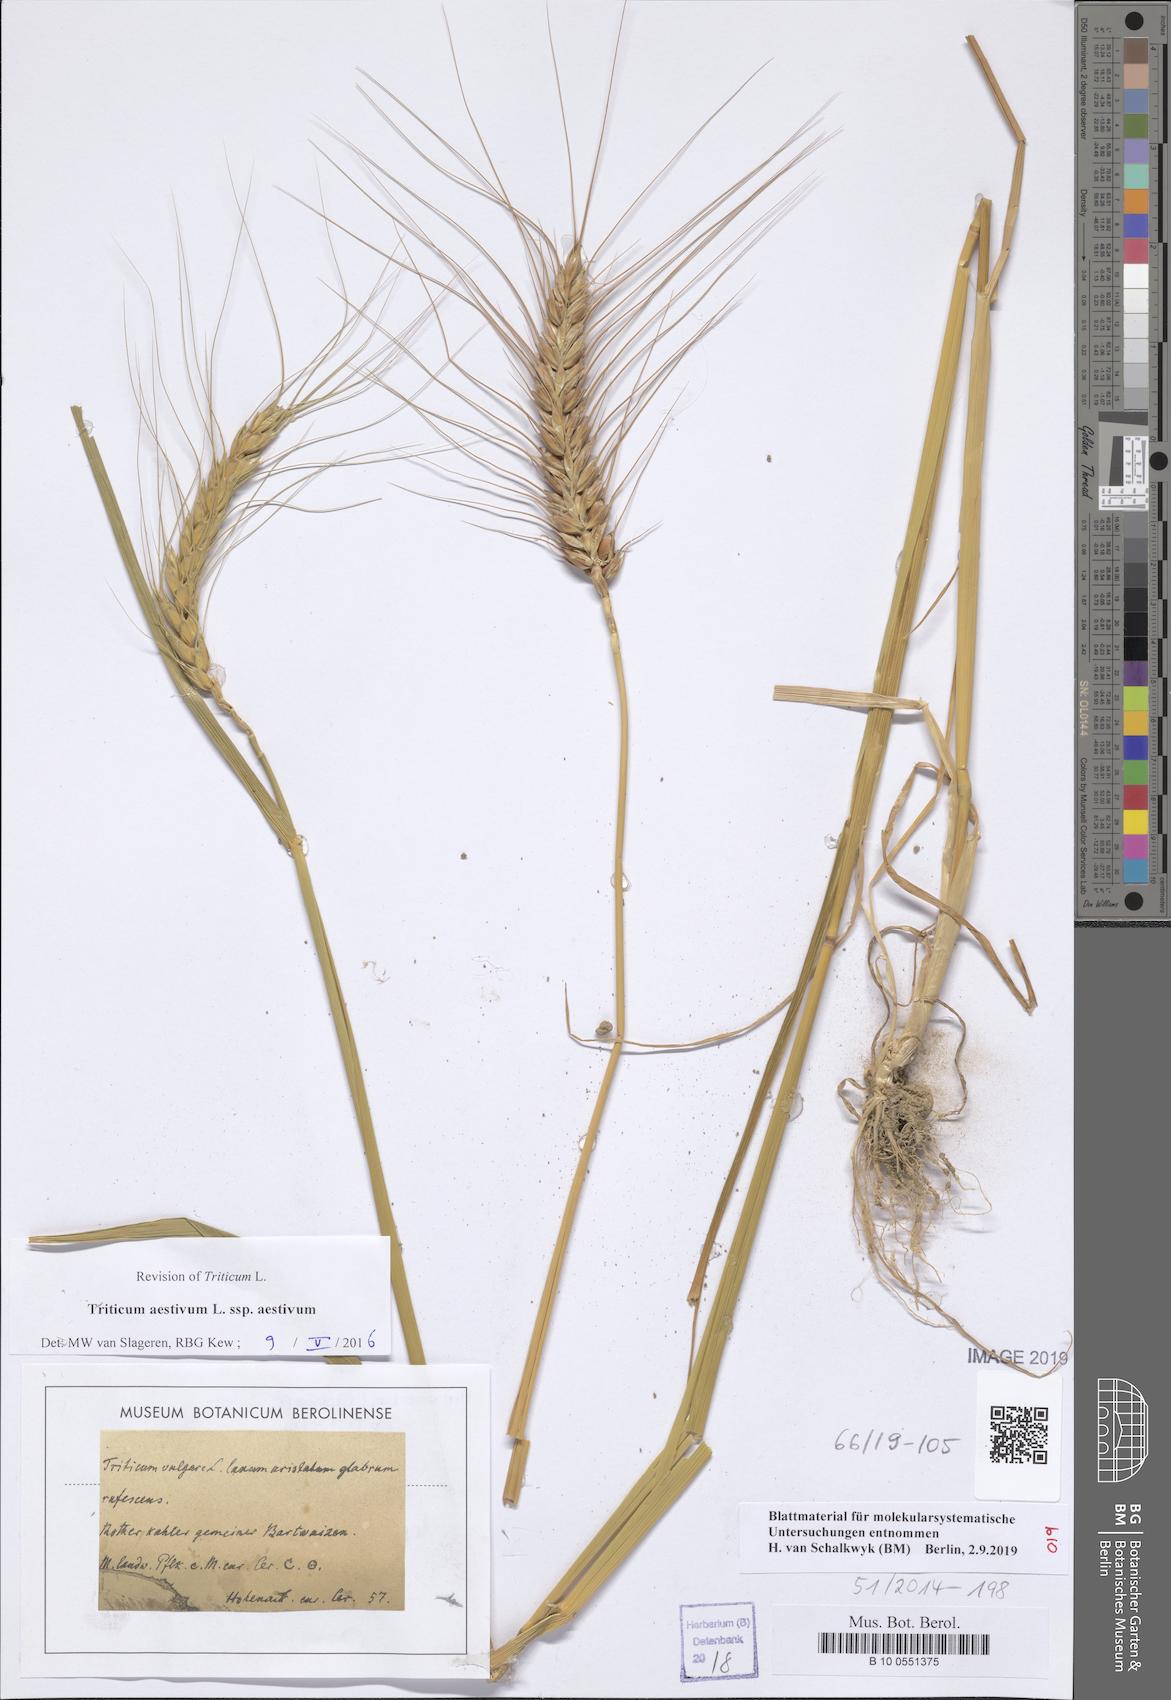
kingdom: Plantae
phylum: Tracheophyta
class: Liliopsida
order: Poales
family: Poaceae
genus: Triticum
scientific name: Triticum aestivum
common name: Common wheat
